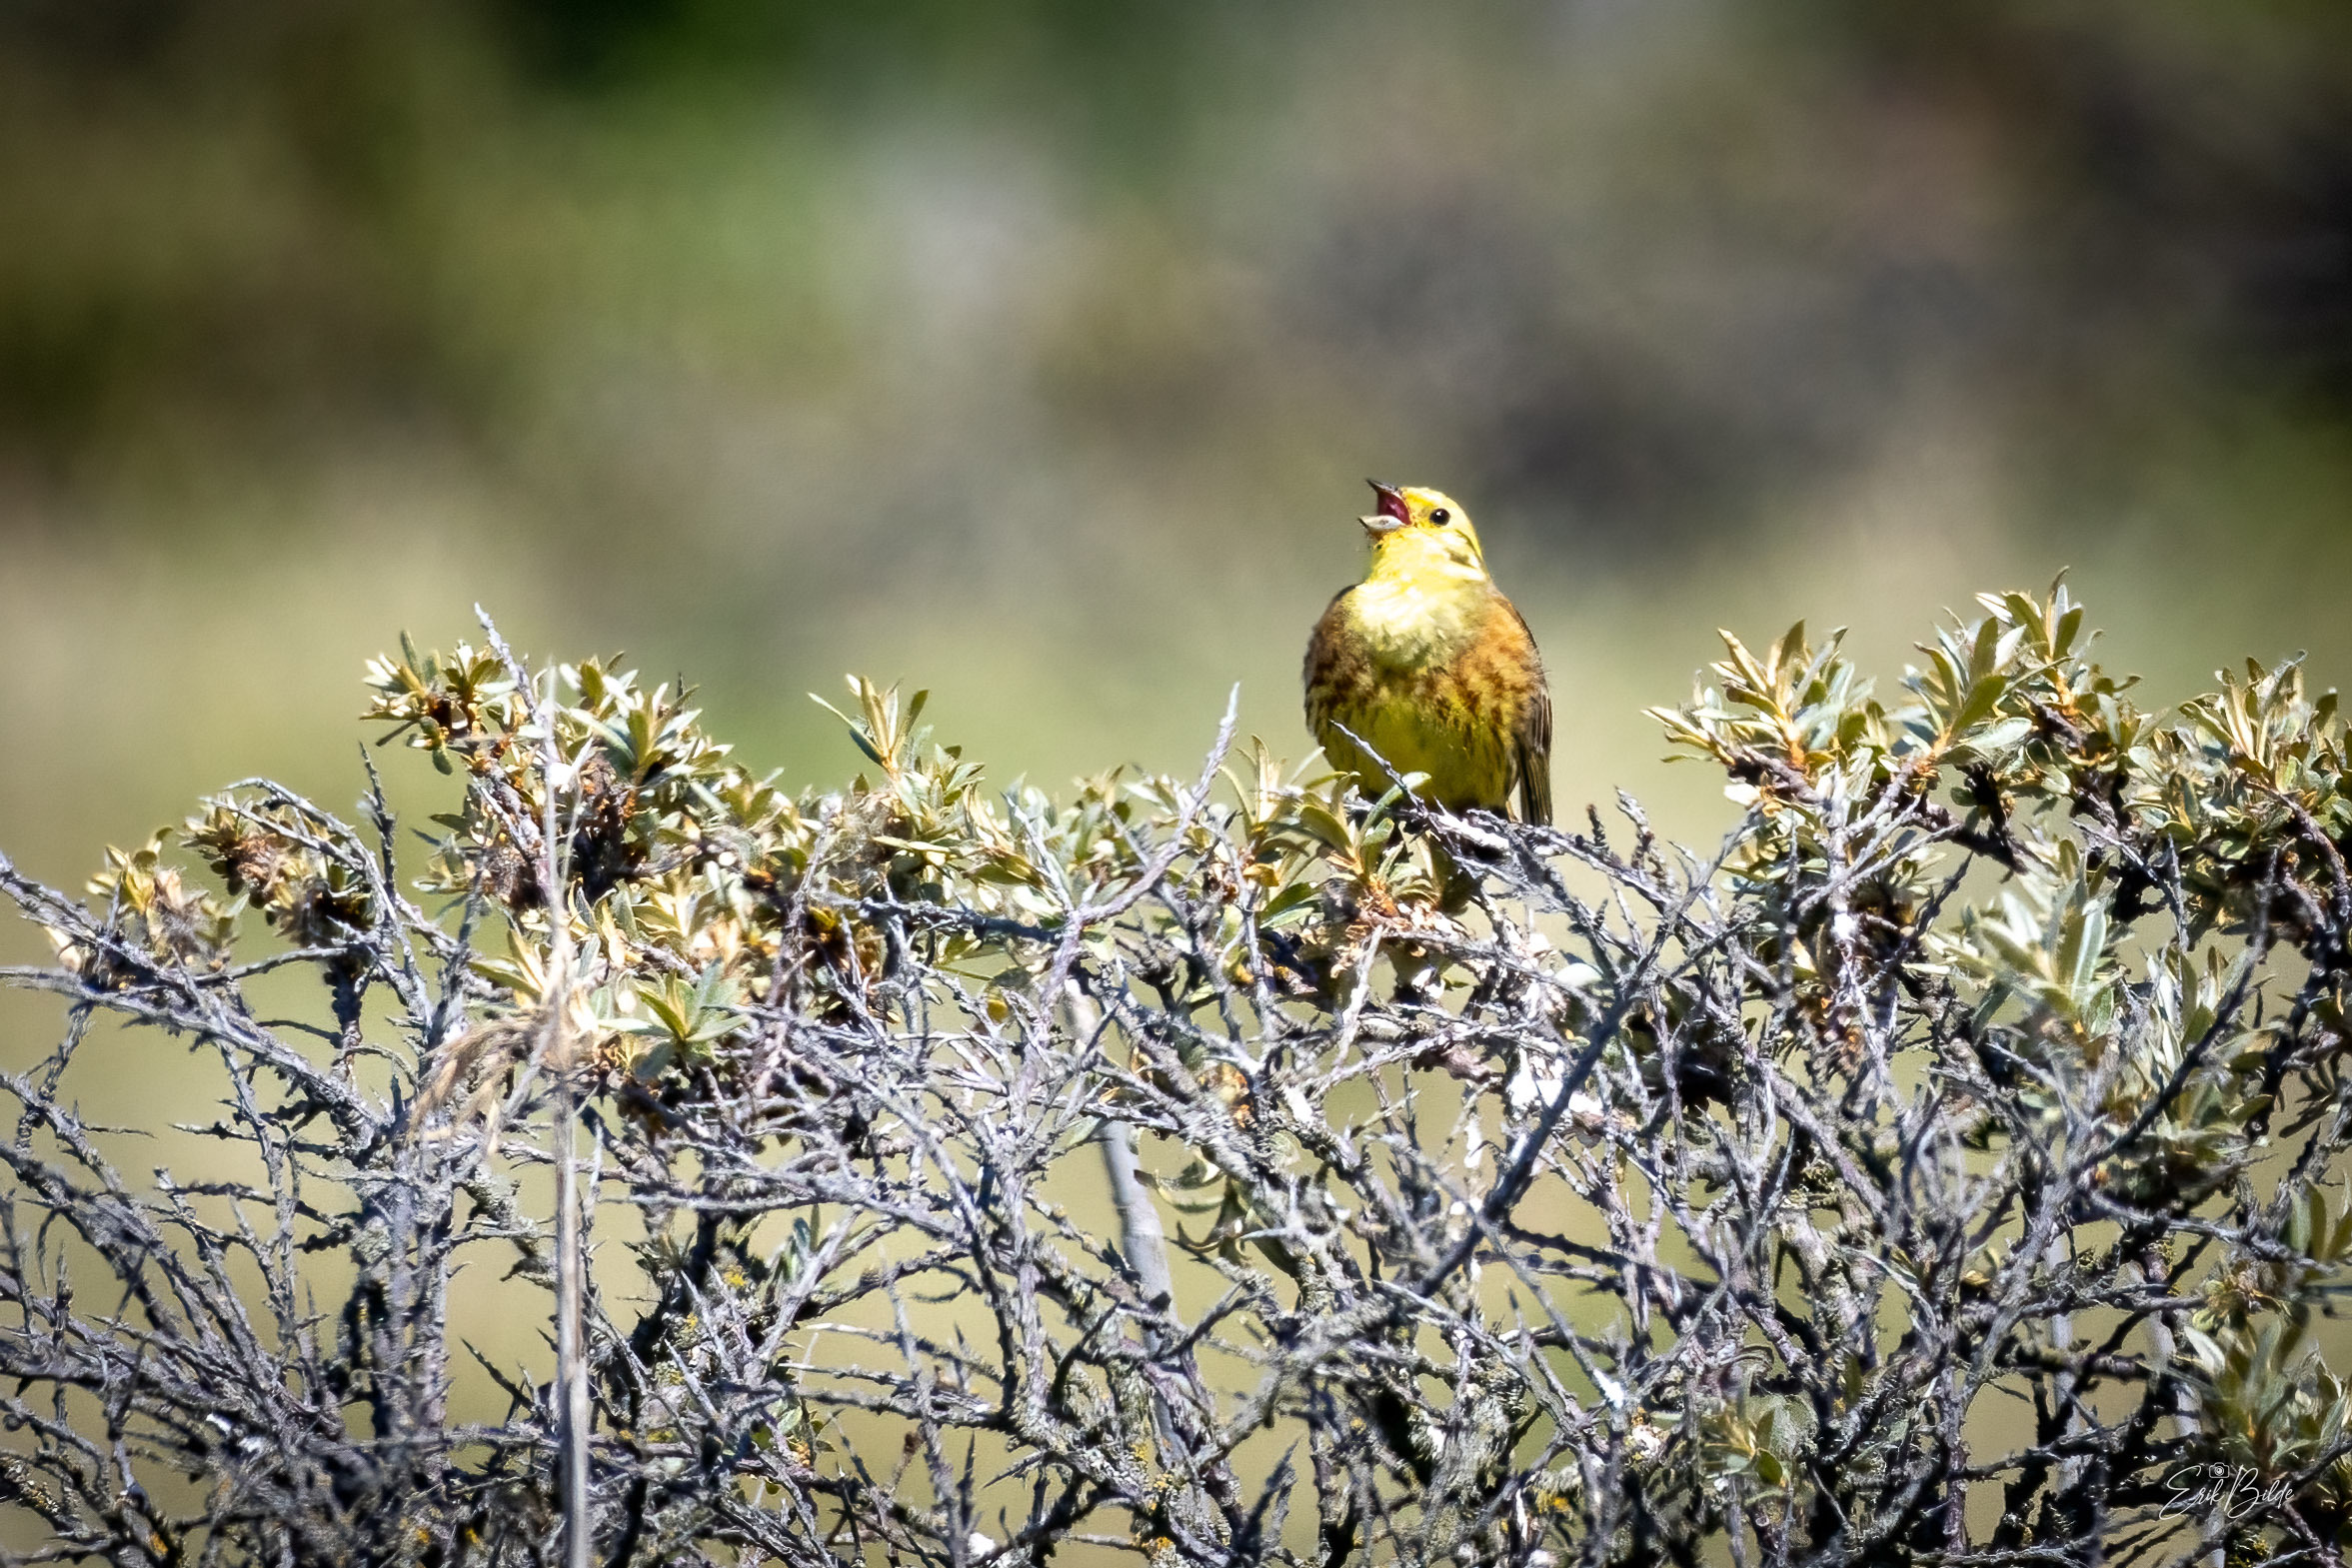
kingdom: Animalia
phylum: Chordata
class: Aves
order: Passeriformes
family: Emberizidae
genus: Emberiza
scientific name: Emberiza citrinella
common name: Gulspurv
